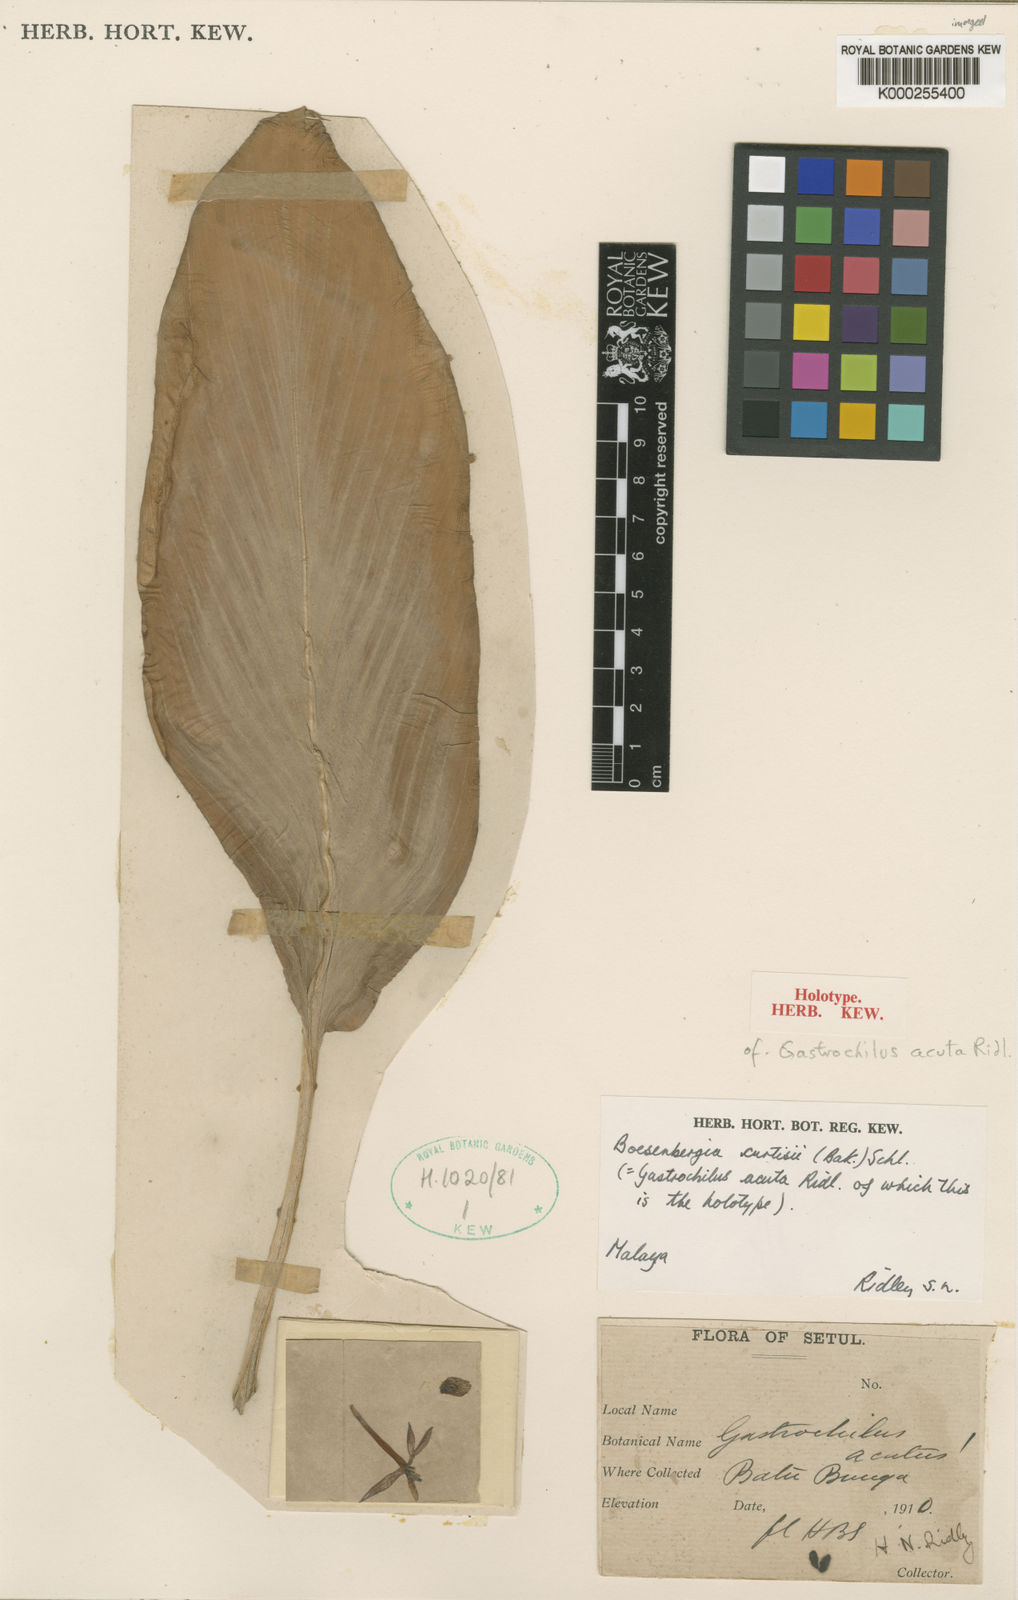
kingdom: Plantae
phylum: Tracheophyta
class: Liliopsida
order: Zingiberales
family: Zingiberaceae
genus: Boesenbergia
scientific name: Boesenbergia curtisii
